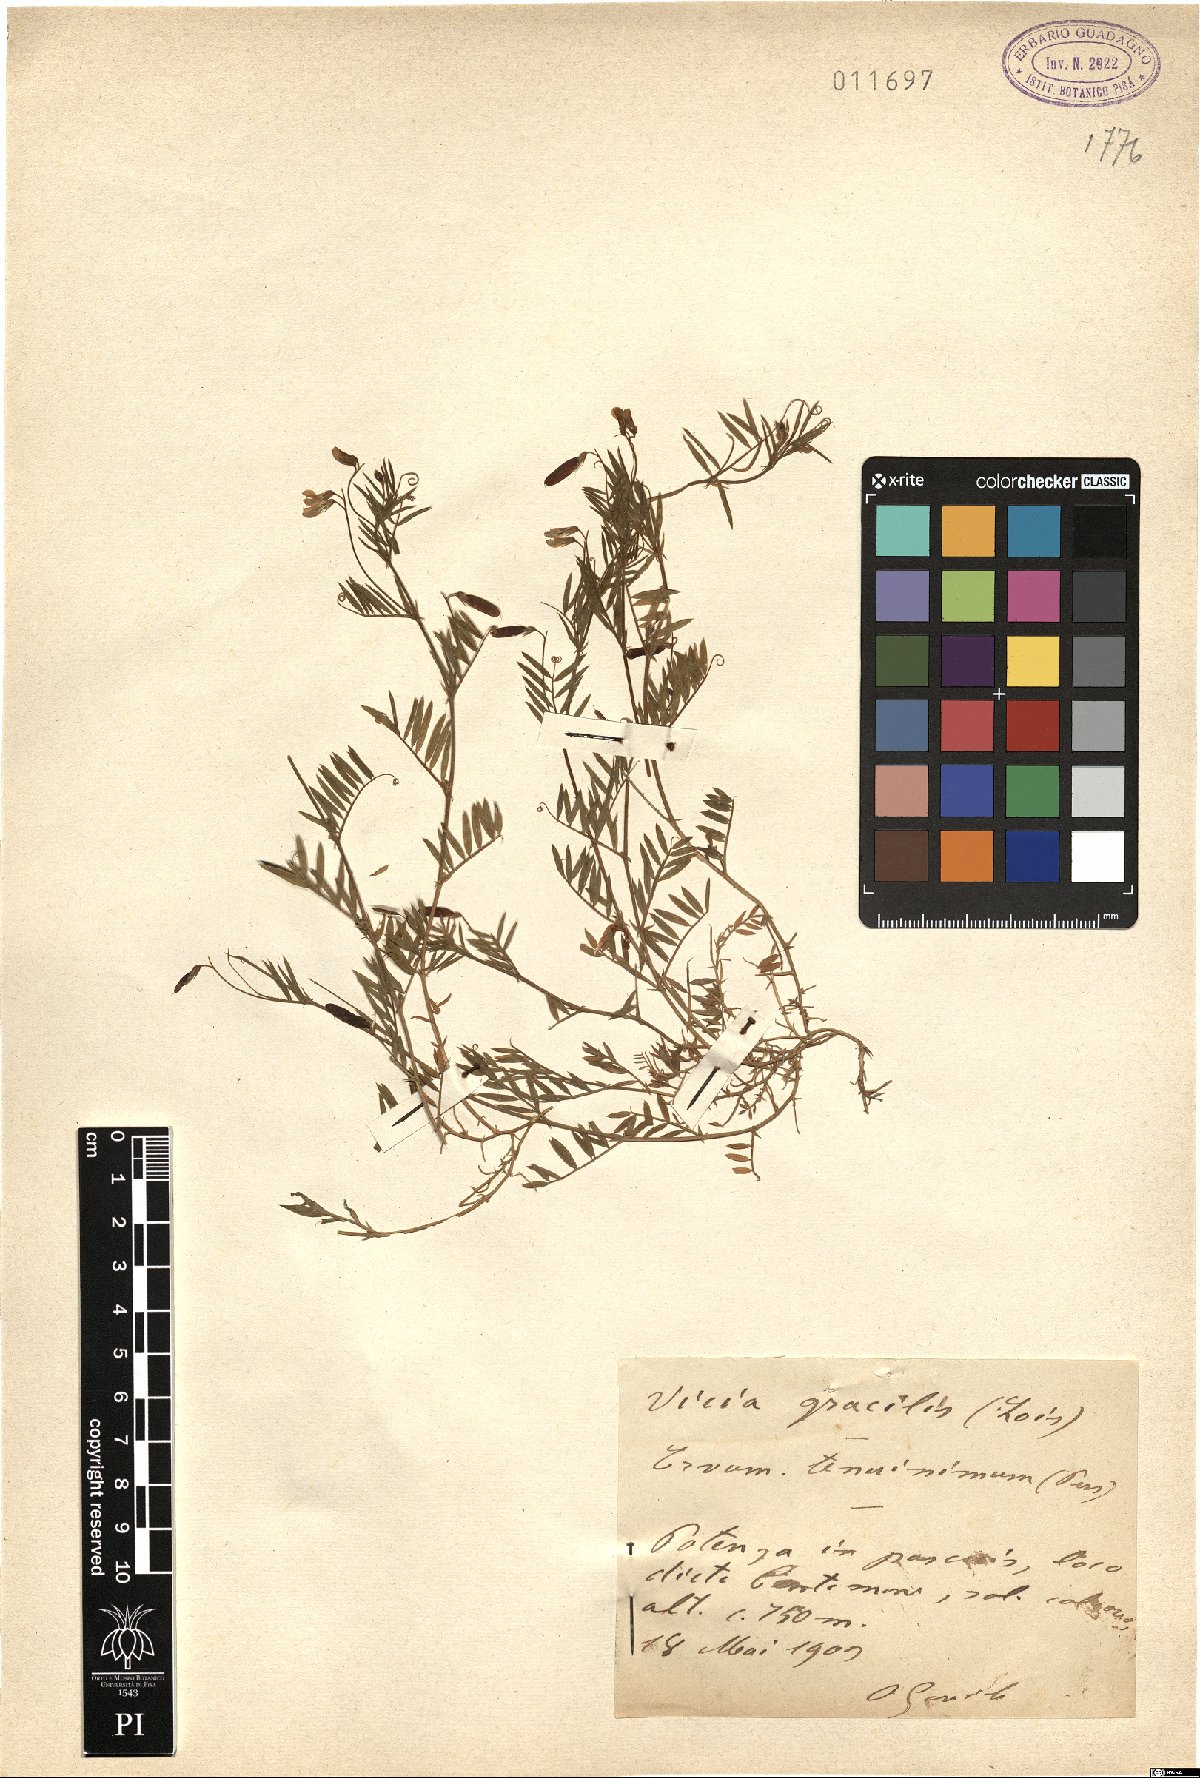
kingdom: Plantae
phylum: Tracheophyta
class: Magnoliopsida
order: Fabales
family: Fabaceae
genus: Vicia
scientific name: Vicia parviflora
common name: Slender tare
